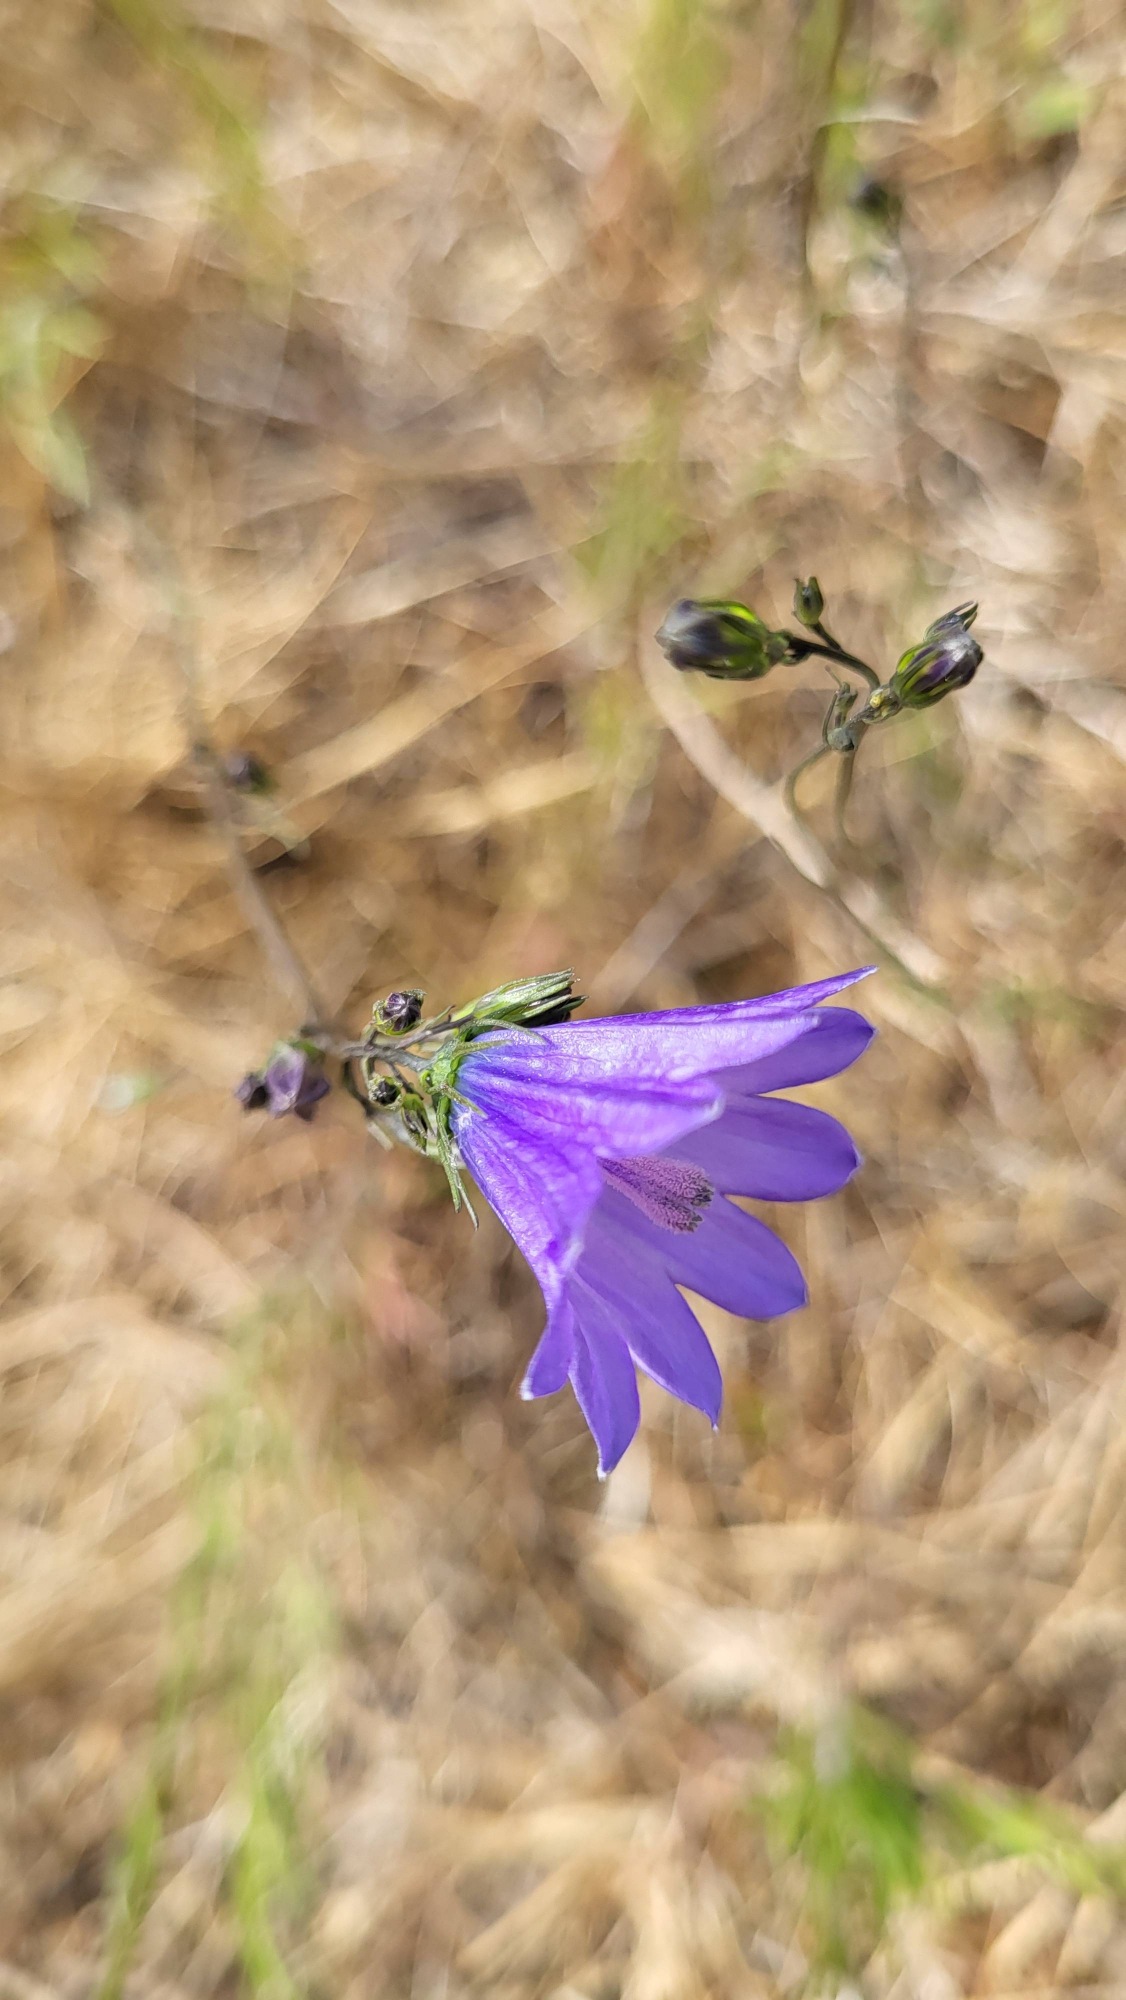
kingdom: Plantae
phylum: Tracheophyta
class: Magnoliopsida
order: Asterales
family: Campanulaceae
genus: Campanula
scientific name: Campanula rotundifolia
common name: Liden klokke
